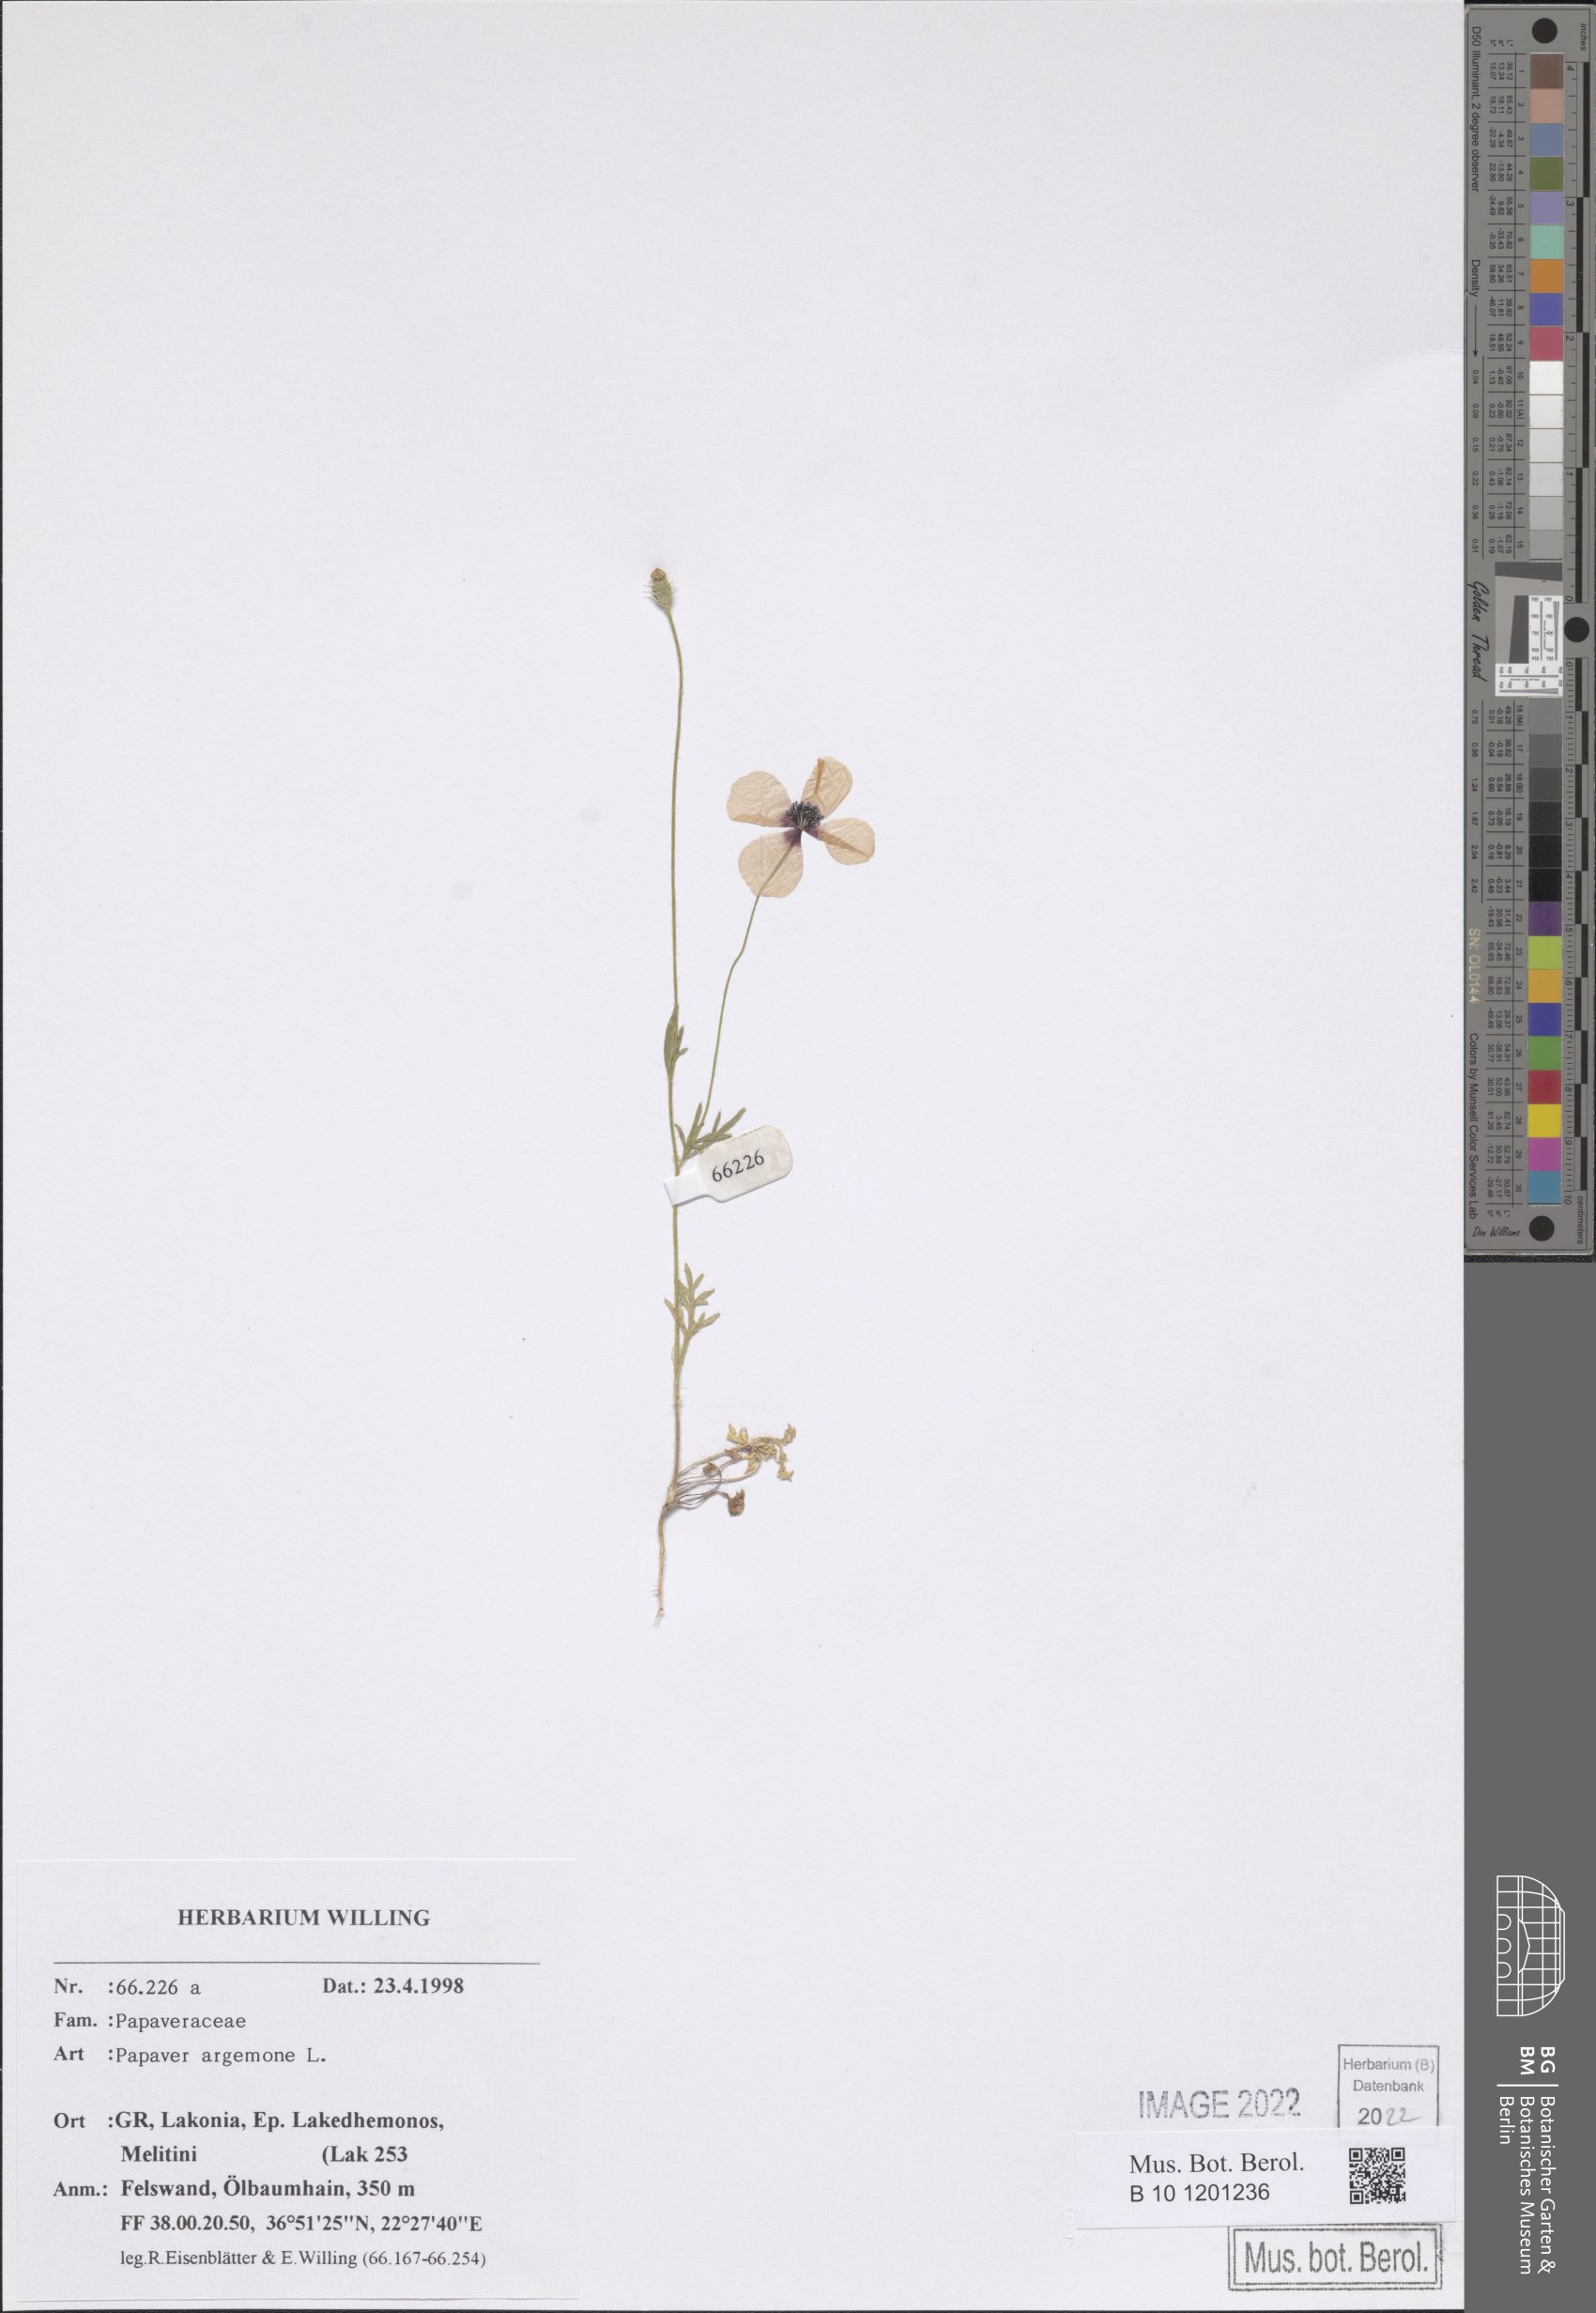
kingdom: Plantae
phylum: Tracheophyta
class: Magnoliopsida
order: Ranunculales
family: Papaveraceae
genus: Roemeria
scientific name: Roemeria argemone
